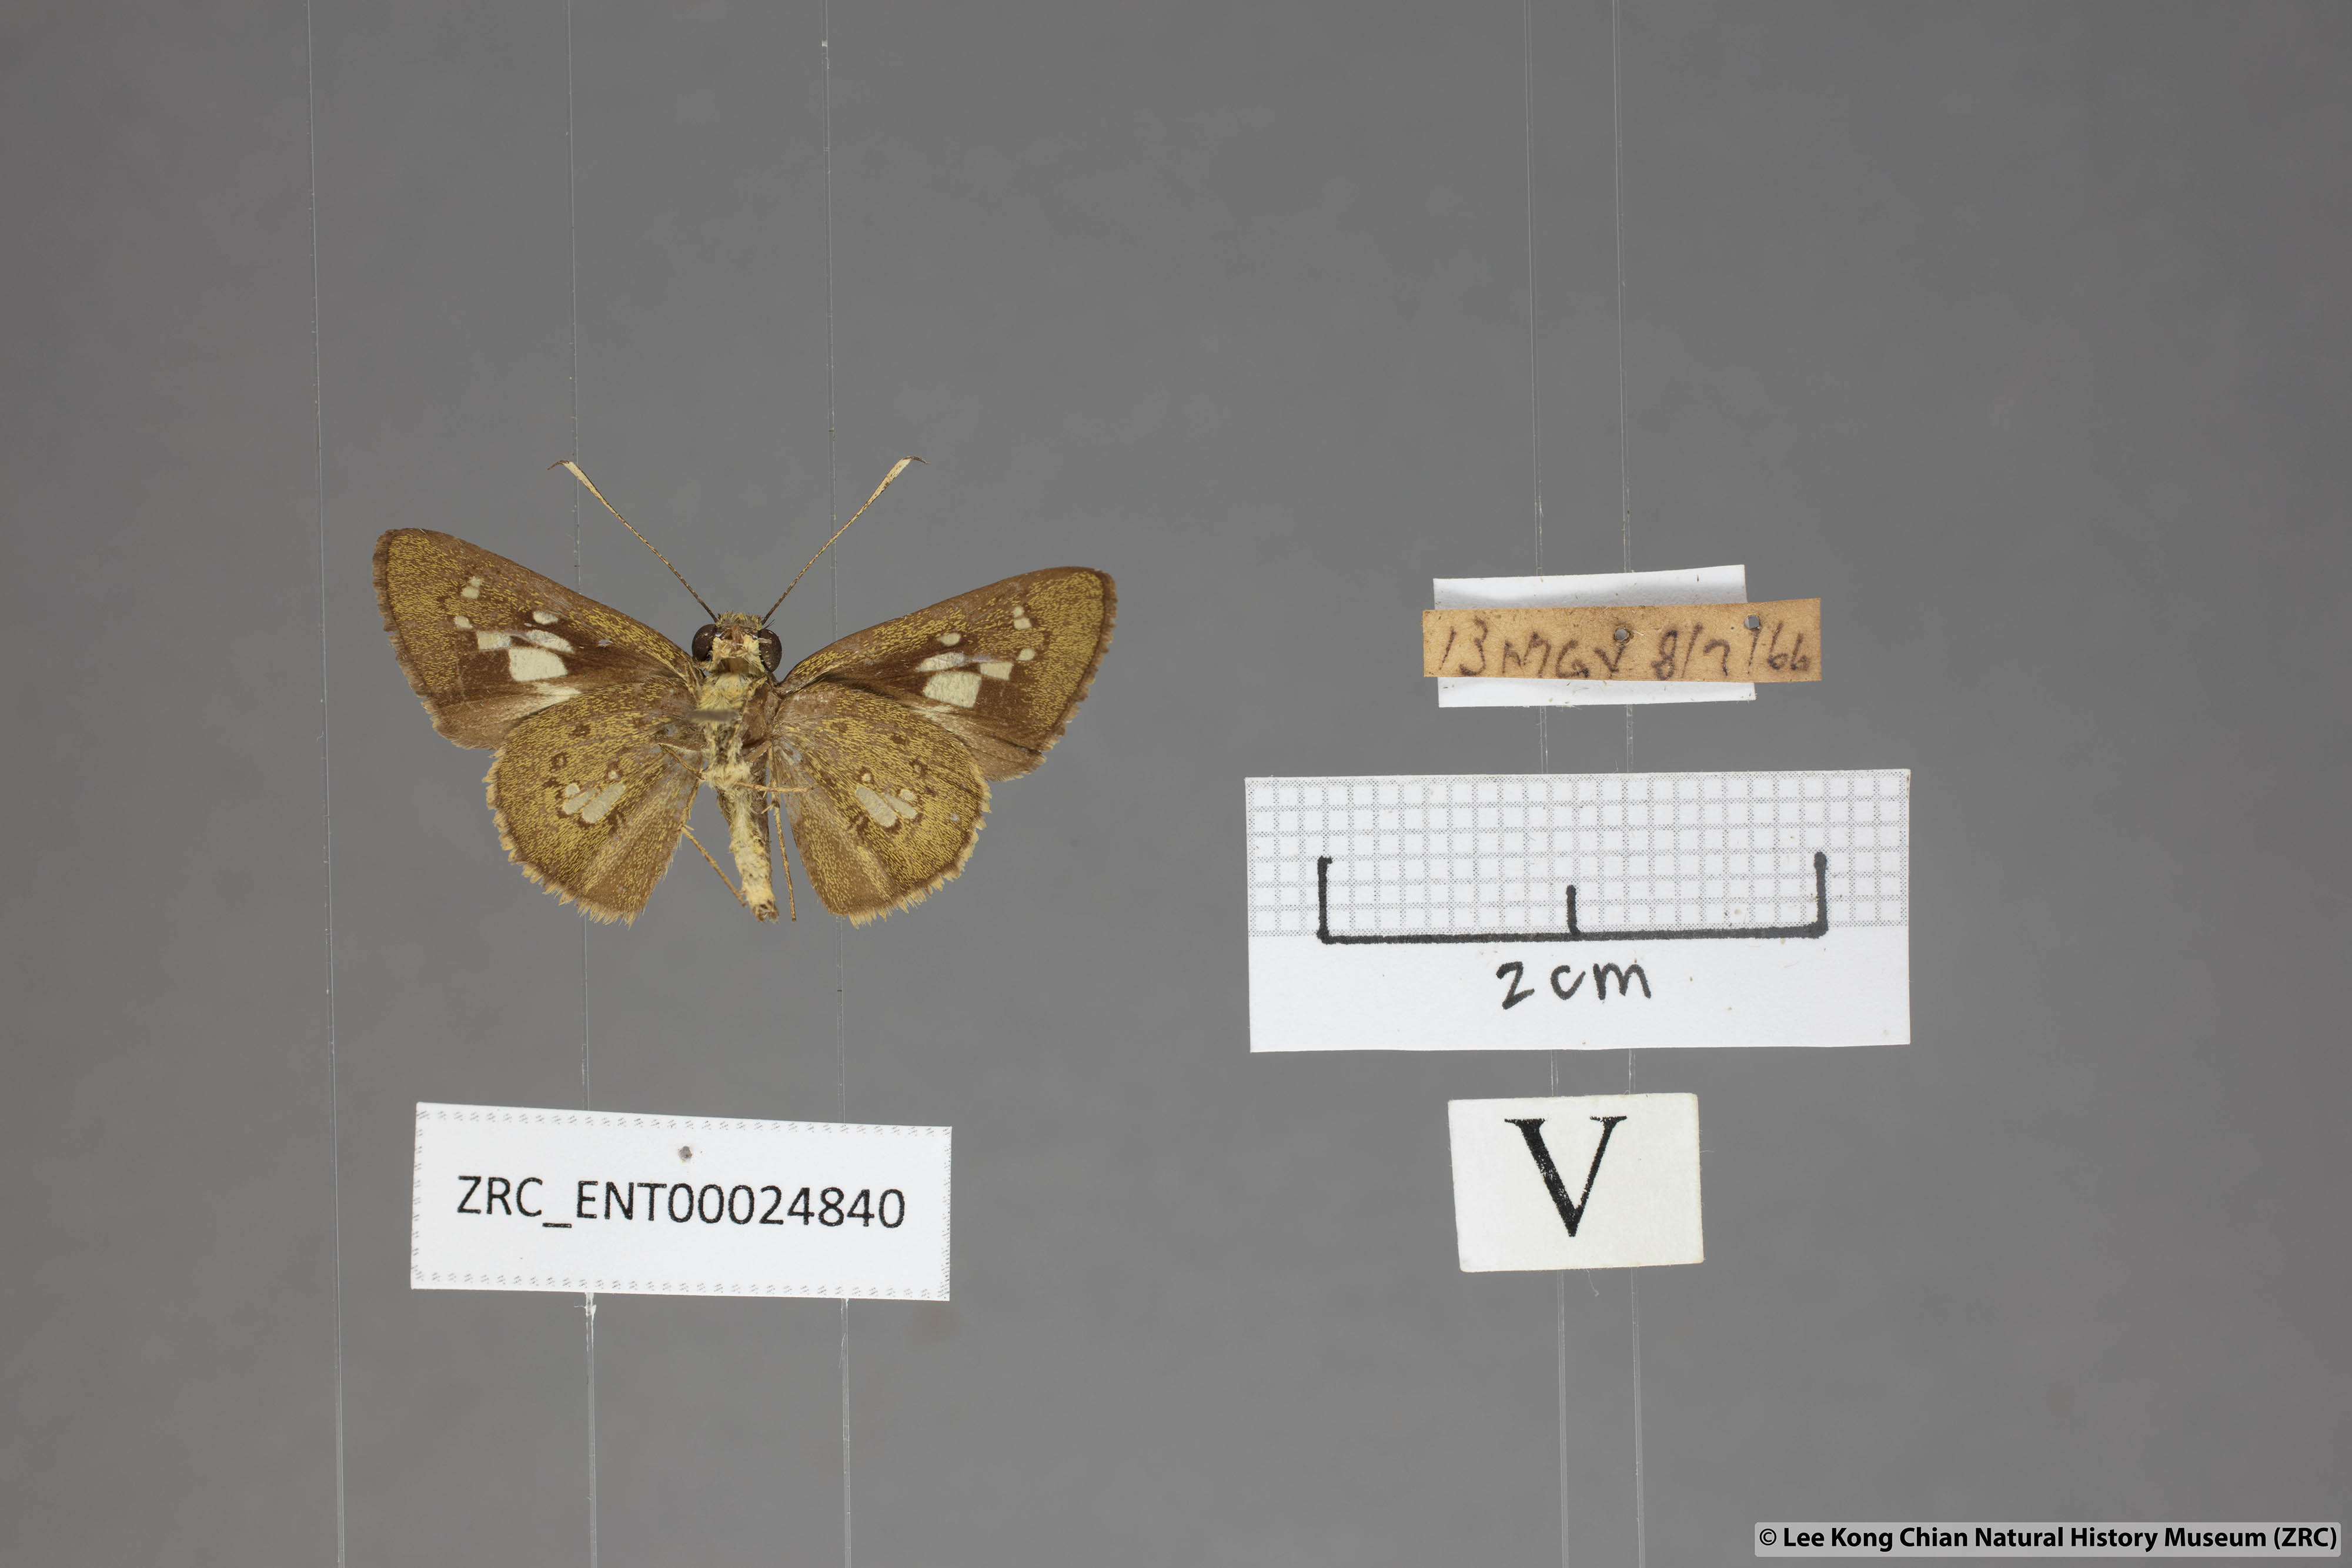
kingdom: Animalia
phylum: Arthropoda
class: Insecta
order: Lepidoptera
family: Hesperiidae
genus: Isma
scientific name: Isma bononia
